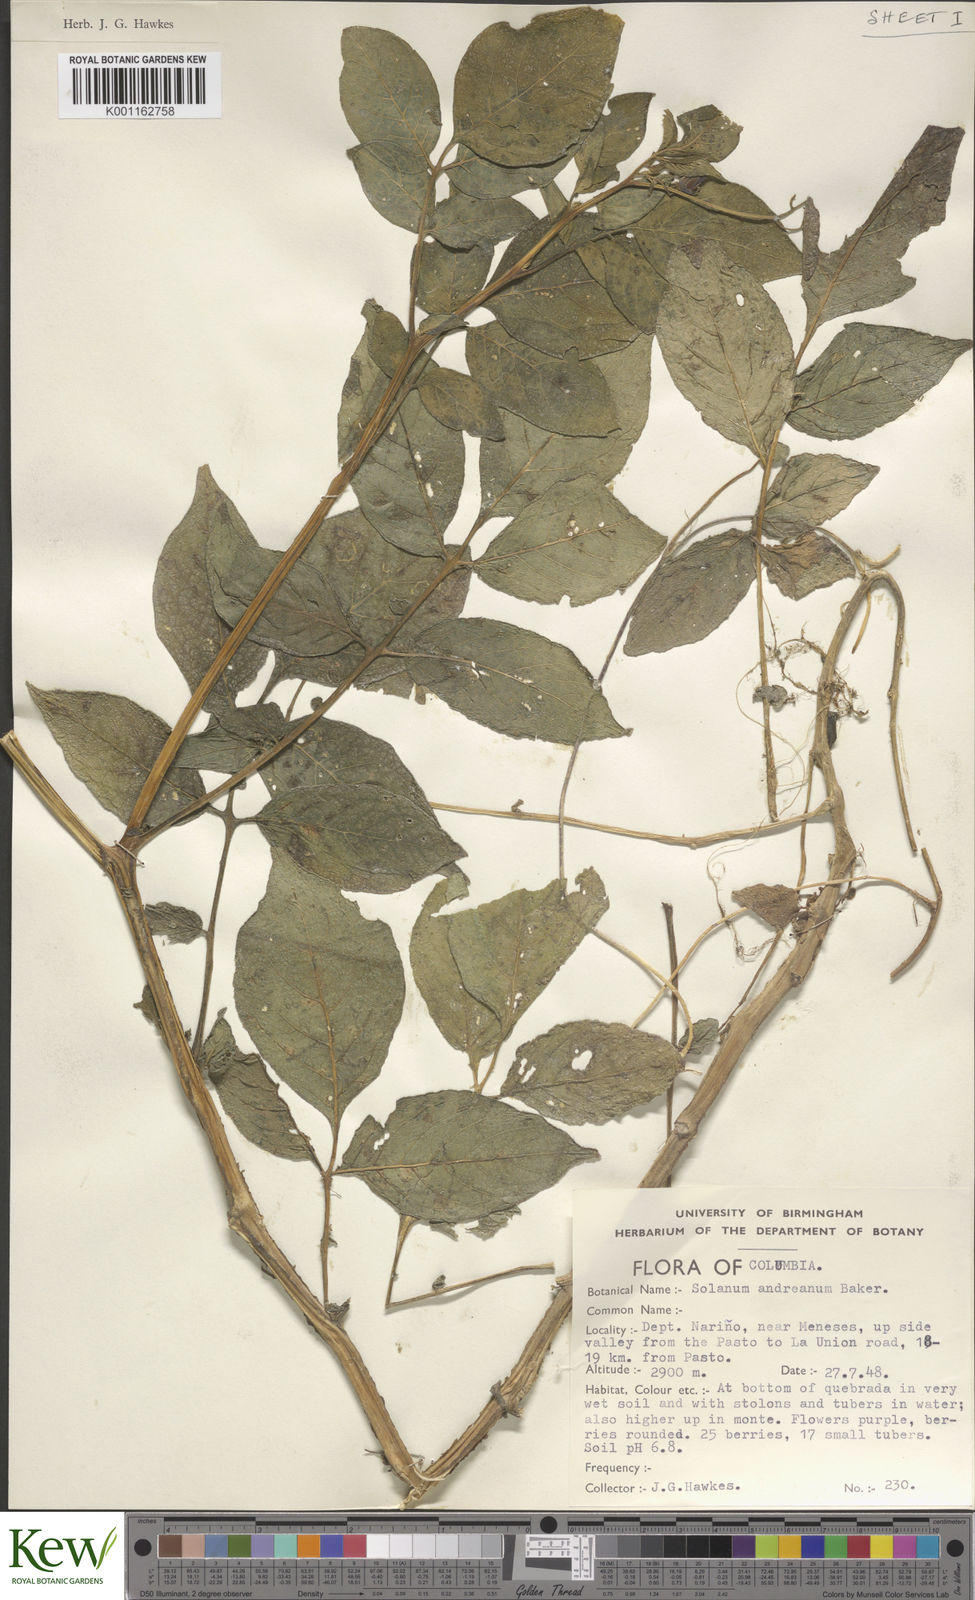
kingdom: Plantae
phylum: Tracheophyta
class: Magnoliopsida
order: Solanales
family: Solanaceae
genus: Solanum
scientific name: Solanum andreanum
